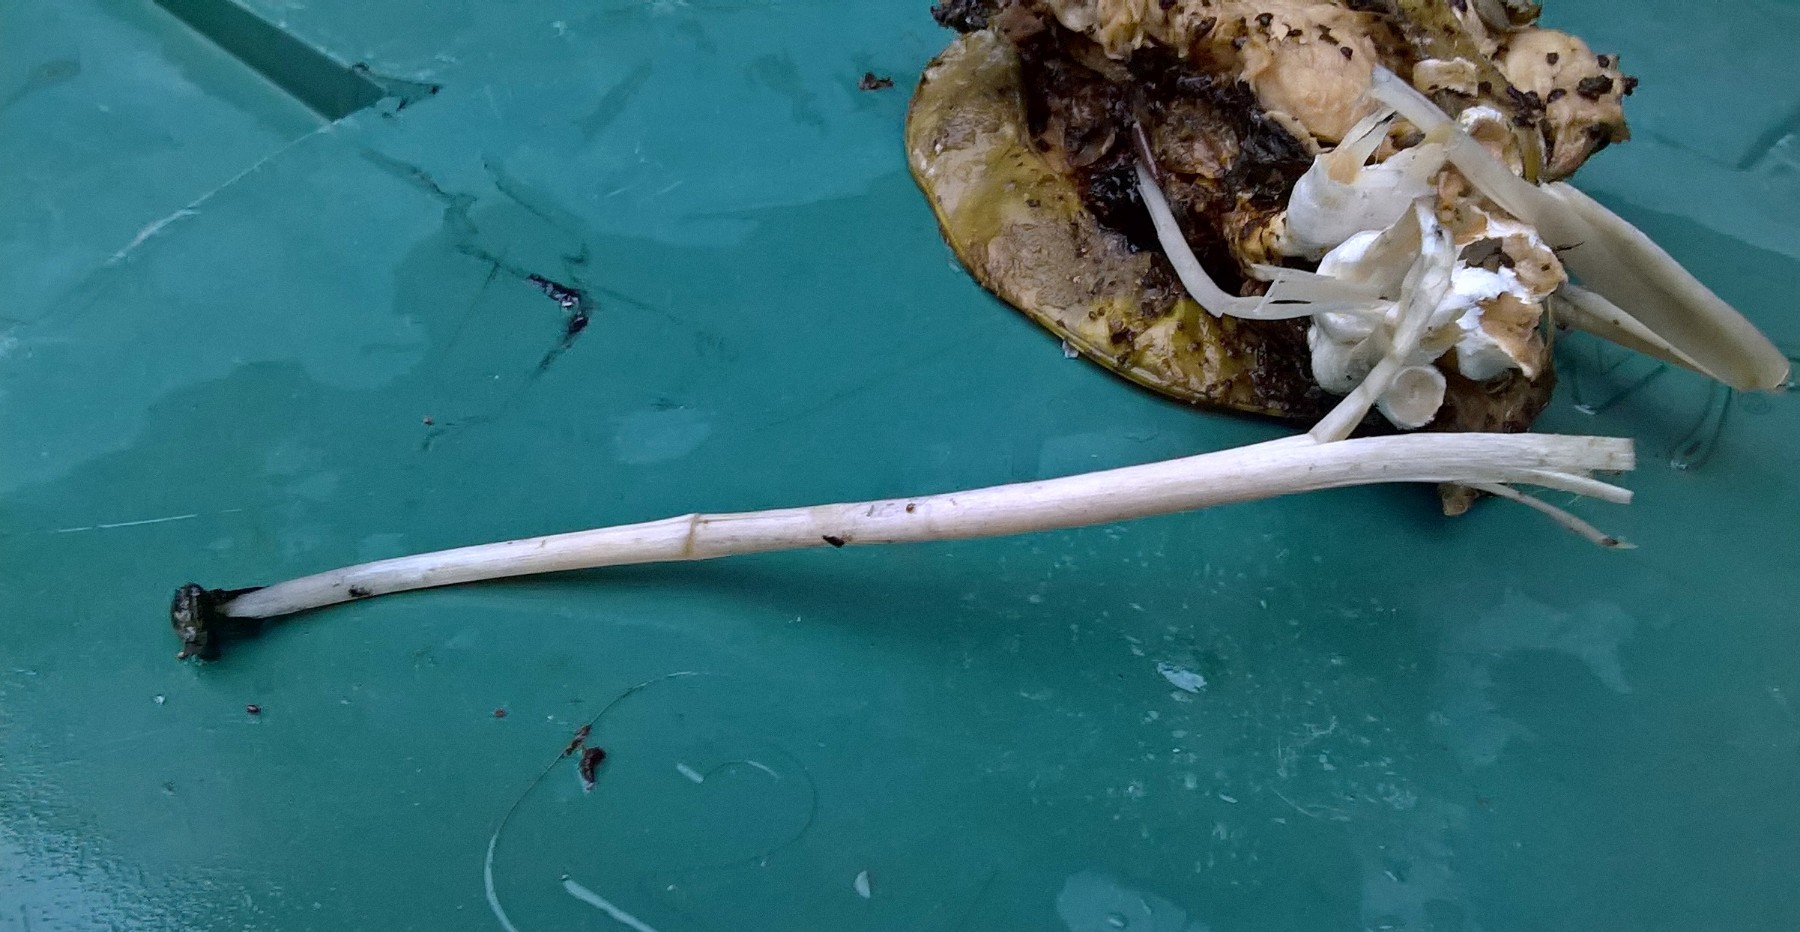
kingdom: Fungi
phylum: Basidiomycota
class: Agaricomycetes
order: Agaricales
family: Psathyrellaceae
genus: Coprinopsis
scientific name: Coprinopsis
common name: blækhat
